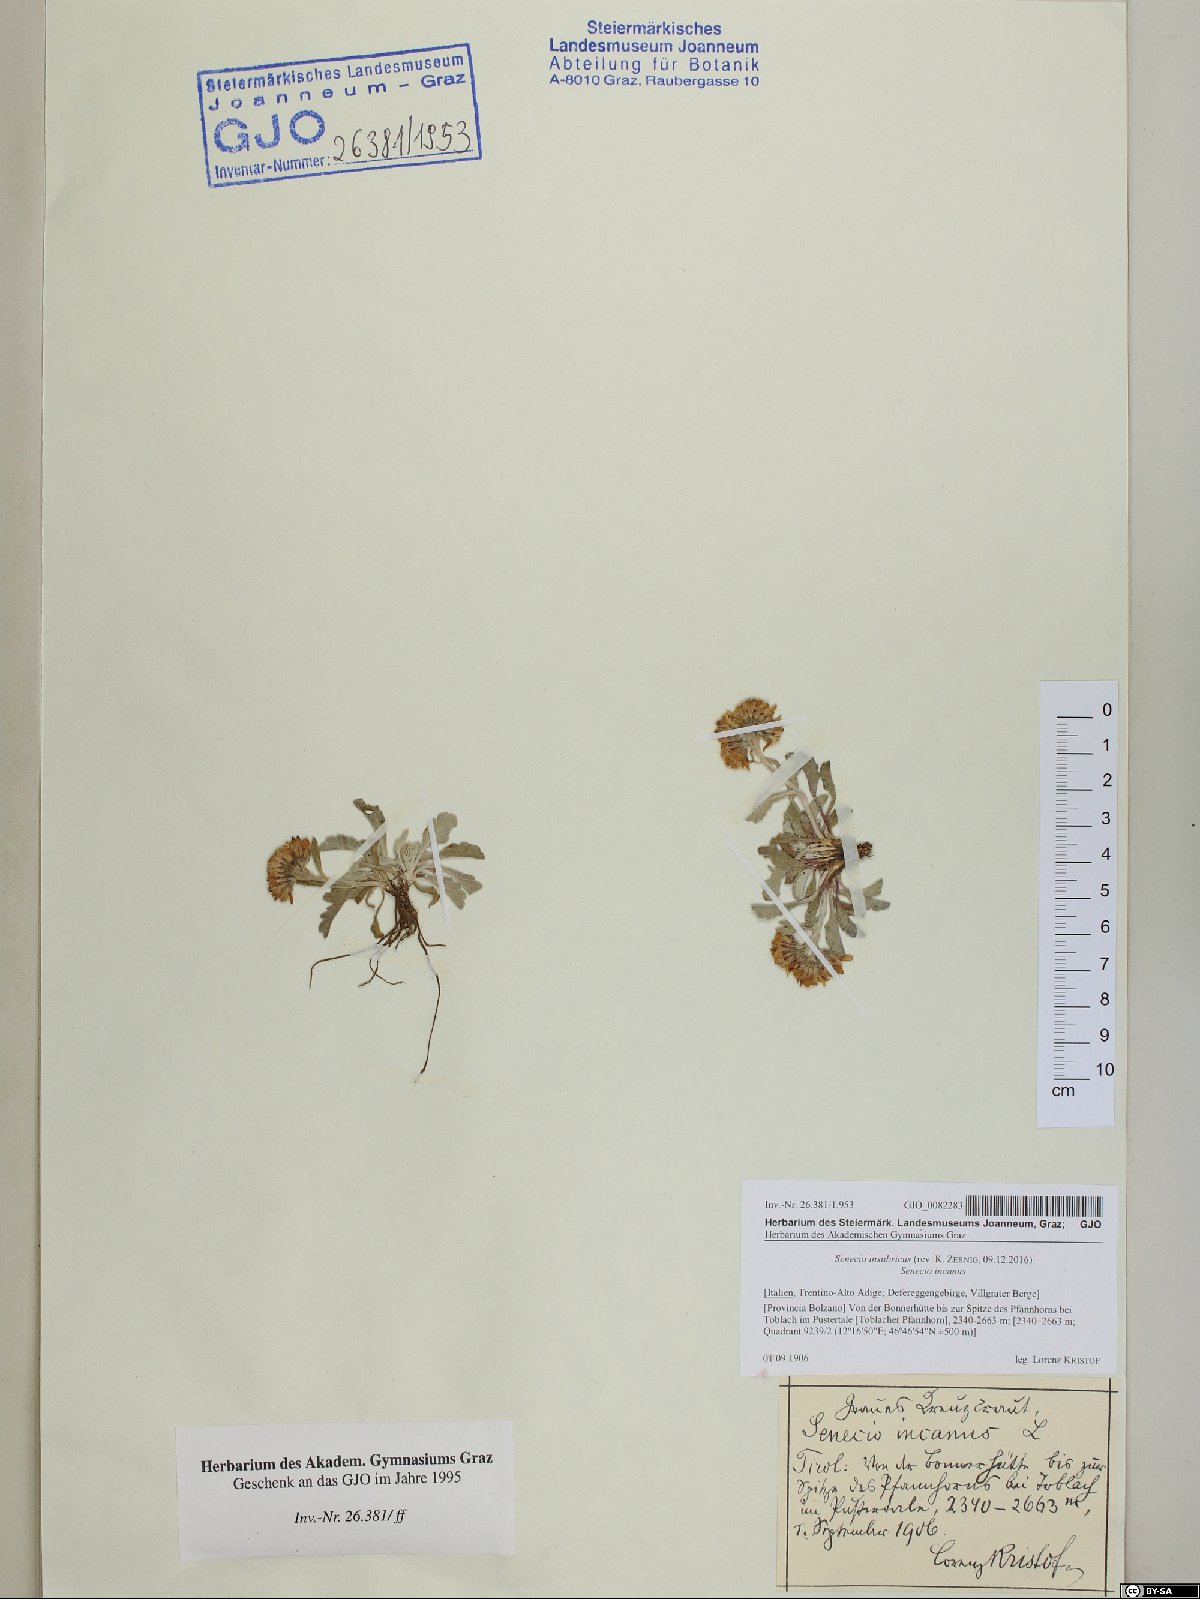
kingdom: Plantae
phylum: Tracheophyta
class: Magnoliopsida
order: Asterales
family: Asteraceae
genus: Jacobaea
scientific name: Jacobaea insubrica
